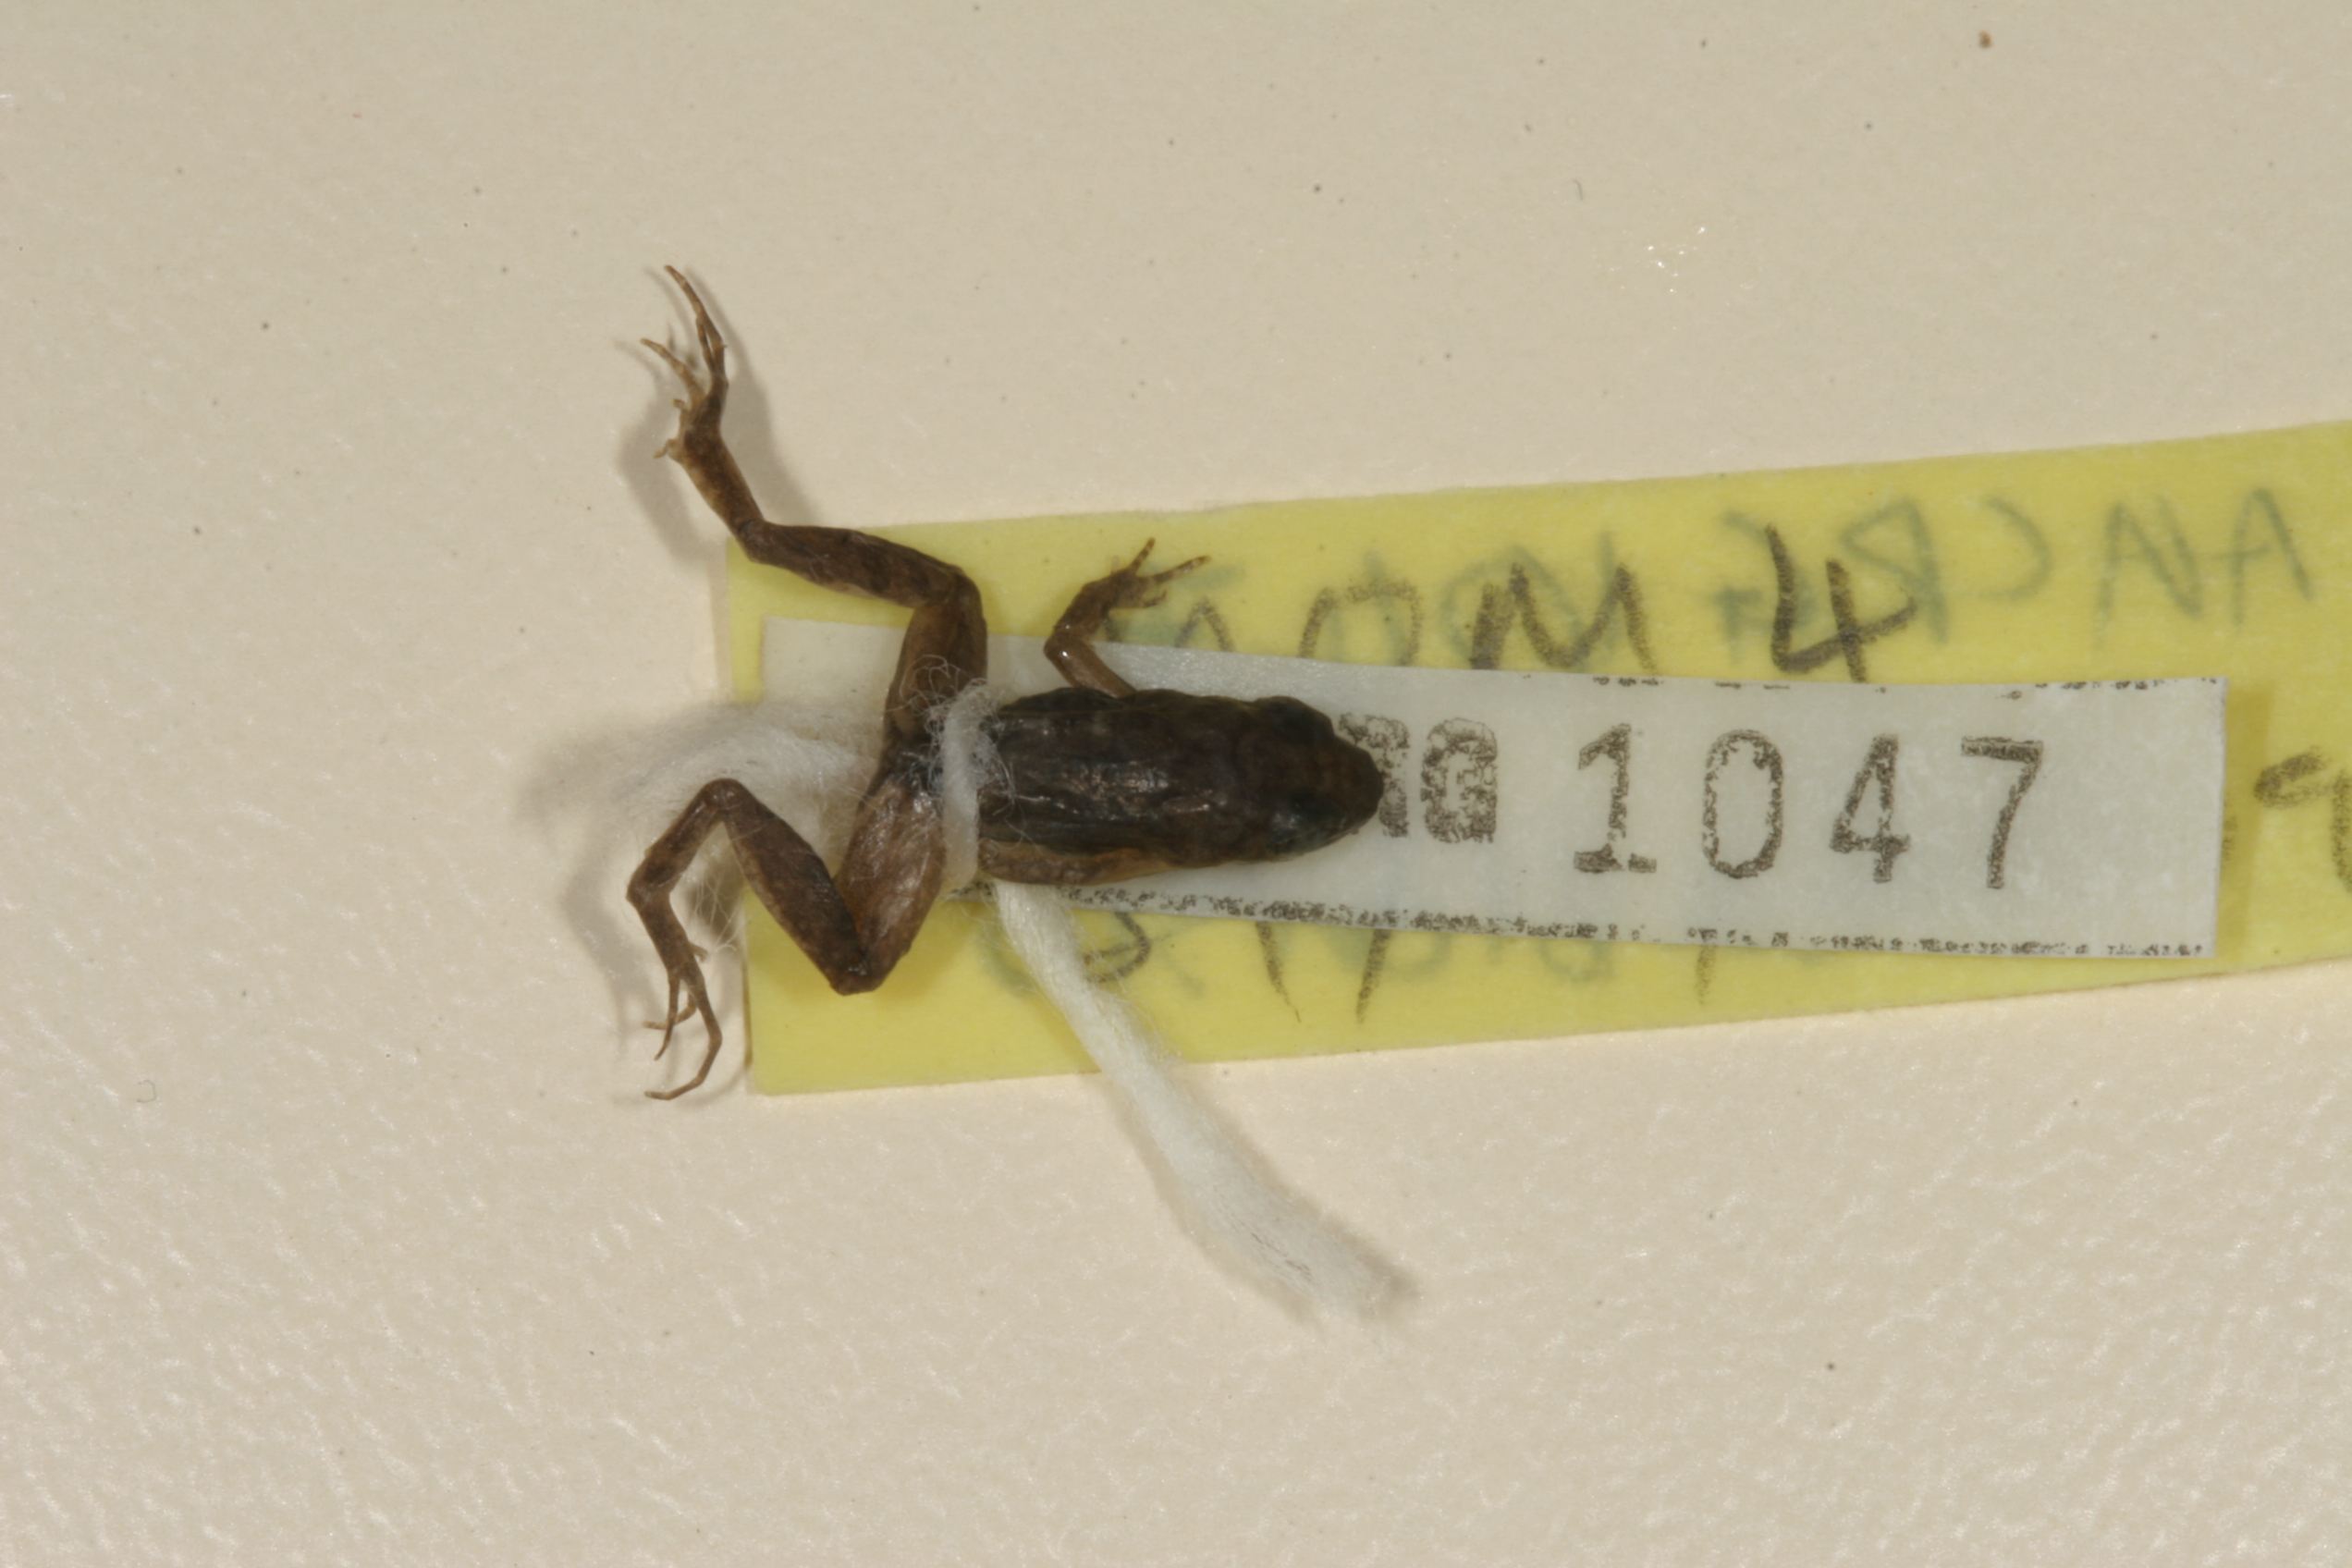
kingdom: Animalia
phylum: Chordata
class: Amphibia
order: Anura
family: Phrynobatrachidae
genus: Phrynobatrachus
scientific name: Phrynobatrachus parvulus
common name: Dwarf puddle frog
